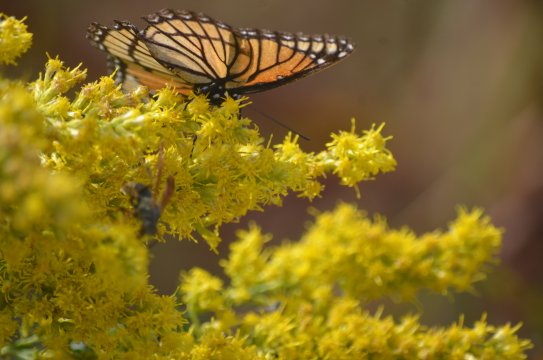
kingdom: Animalia
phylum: Arthropoda
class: Insecta
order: Lepidoptera
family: Nymphalidae
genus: Limenitis
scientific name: Limenitis archippus
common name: Viceroy
